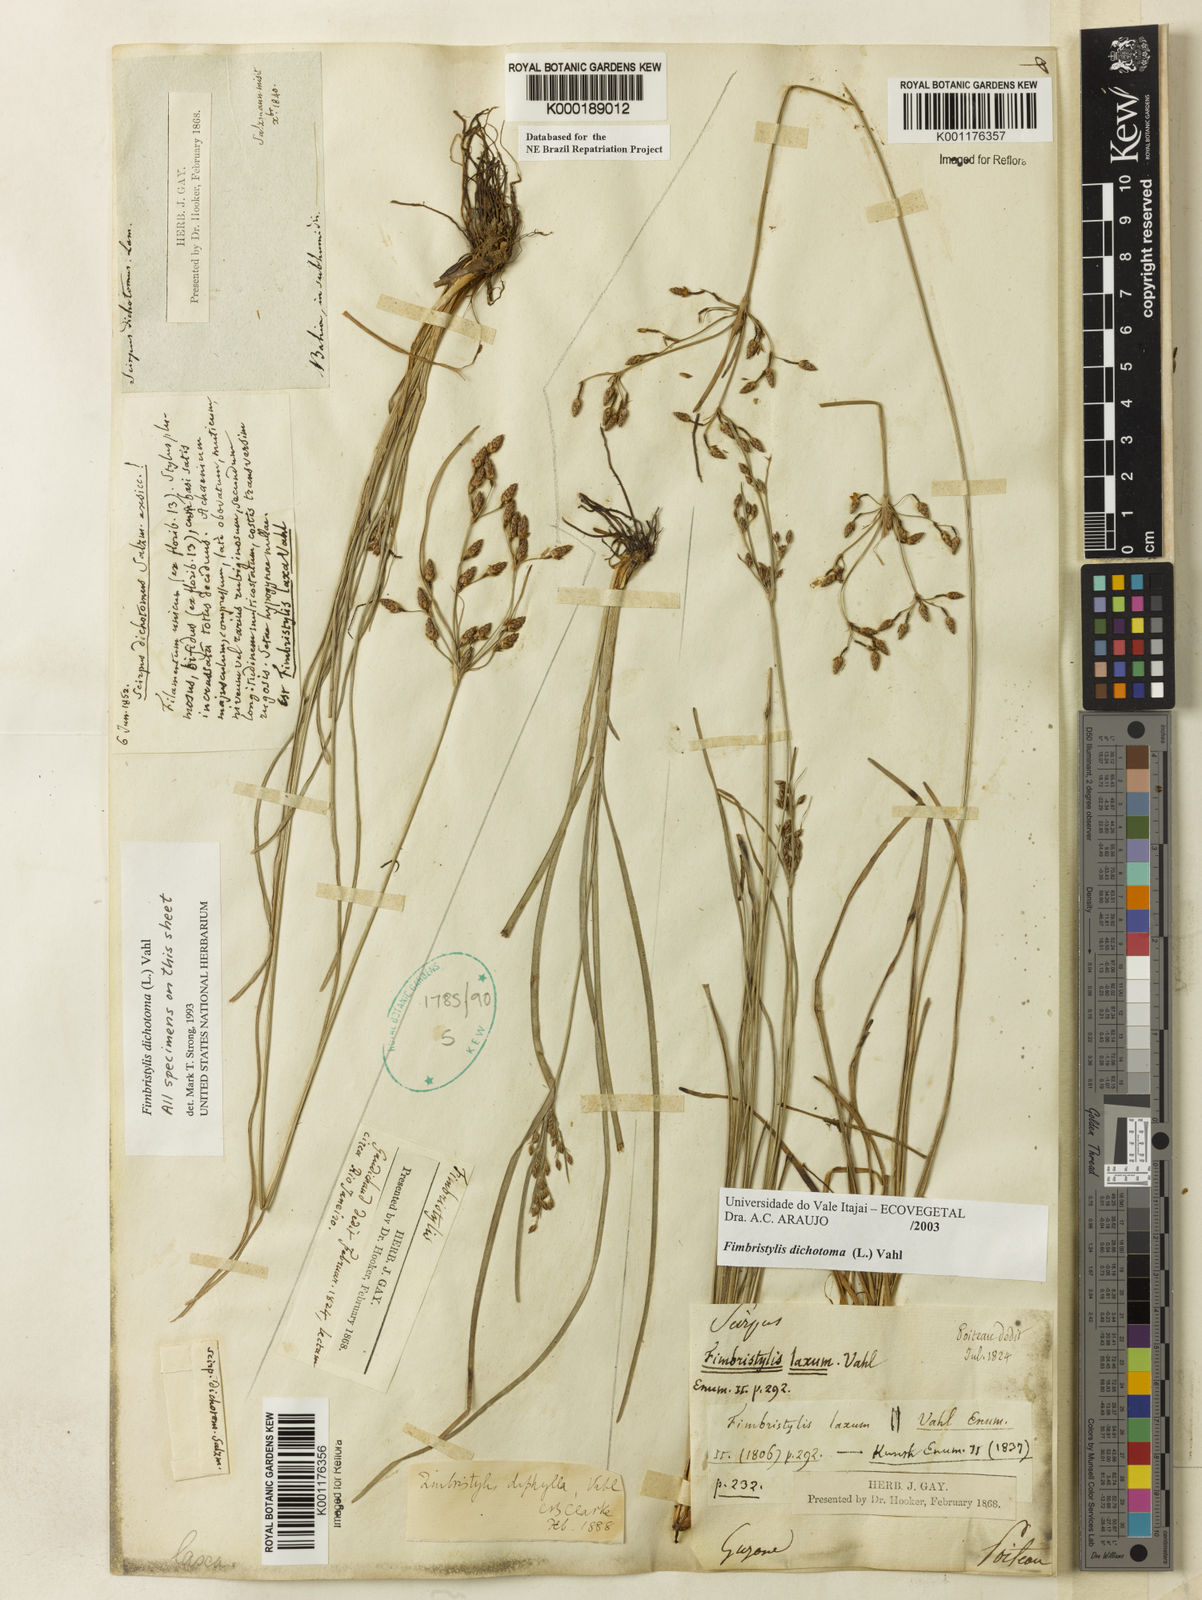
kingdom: Plantae
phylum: Tracheophyta
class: Liliopsida
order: Poales
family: Cyperaceae
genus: Fimbristylis
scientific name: Fimbristylis dichotoma
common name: Forked fimbry
